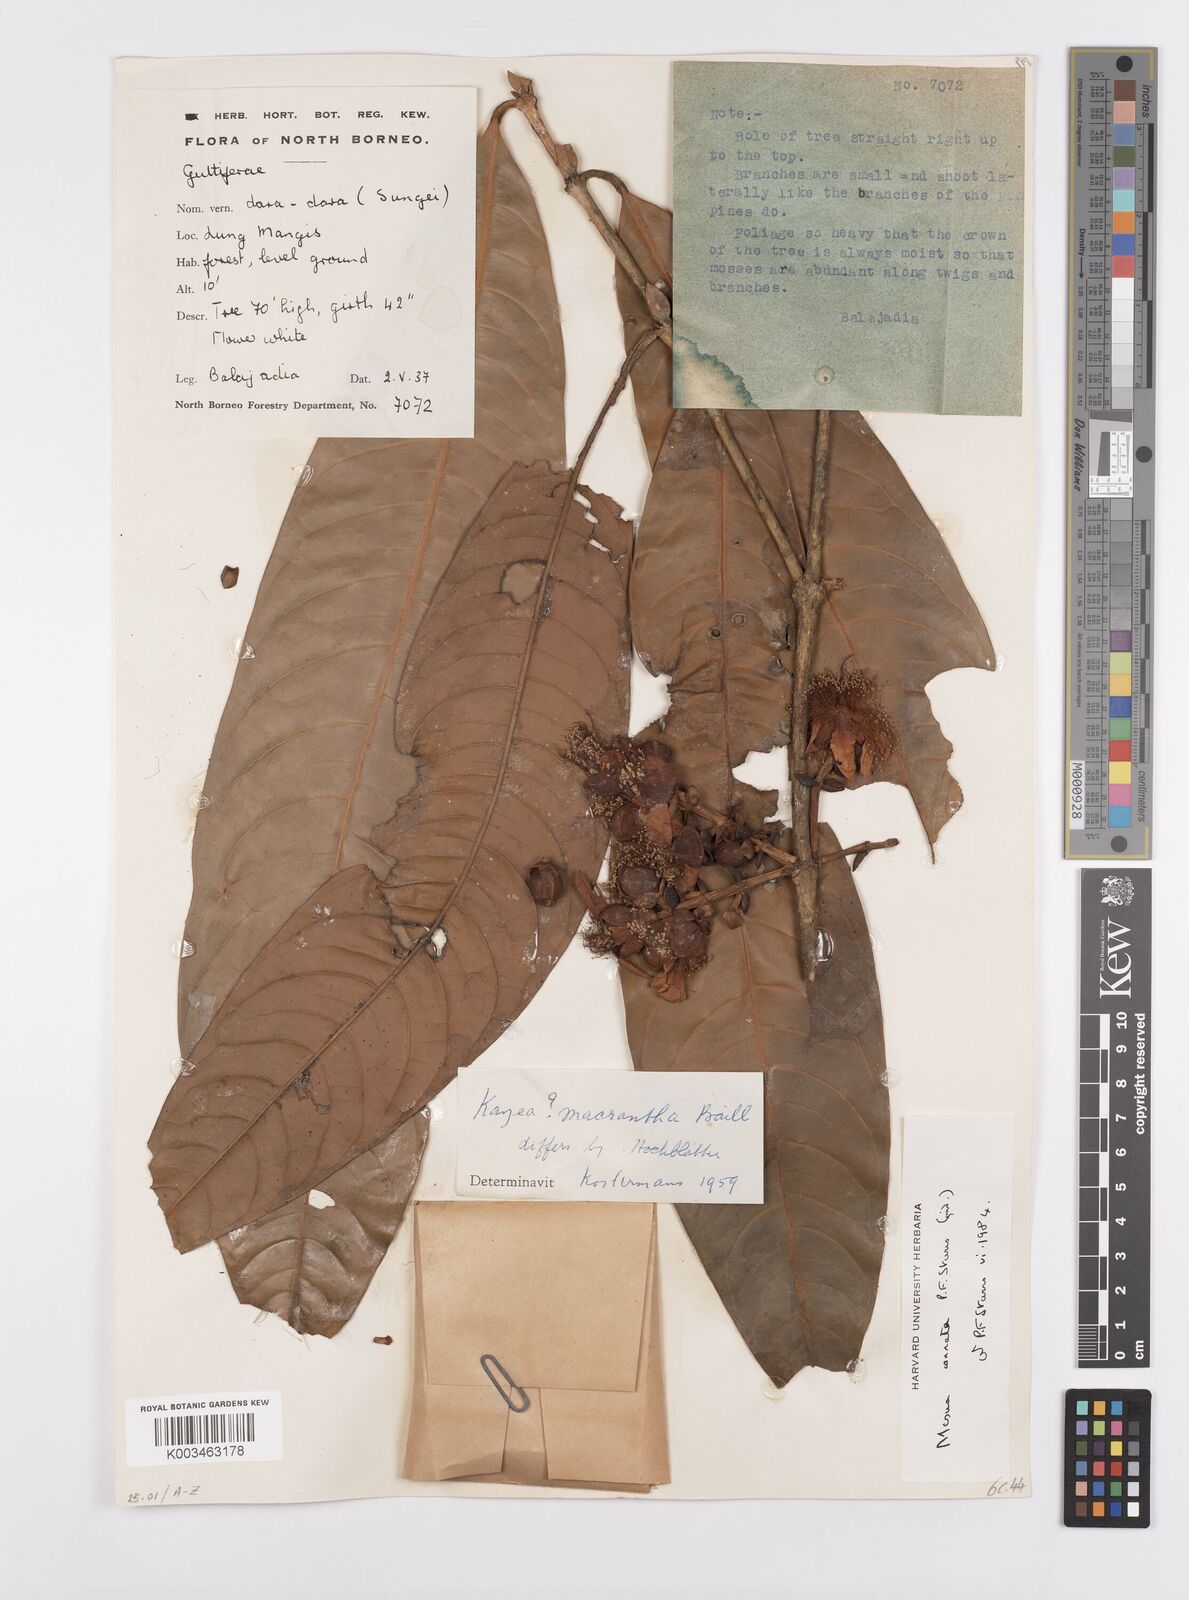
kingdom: Plantae
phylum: Tracheophyta
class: Magnoliopsida
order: Malpighiales
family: Calophyllaceae
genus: Kayea
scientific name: Kayea
